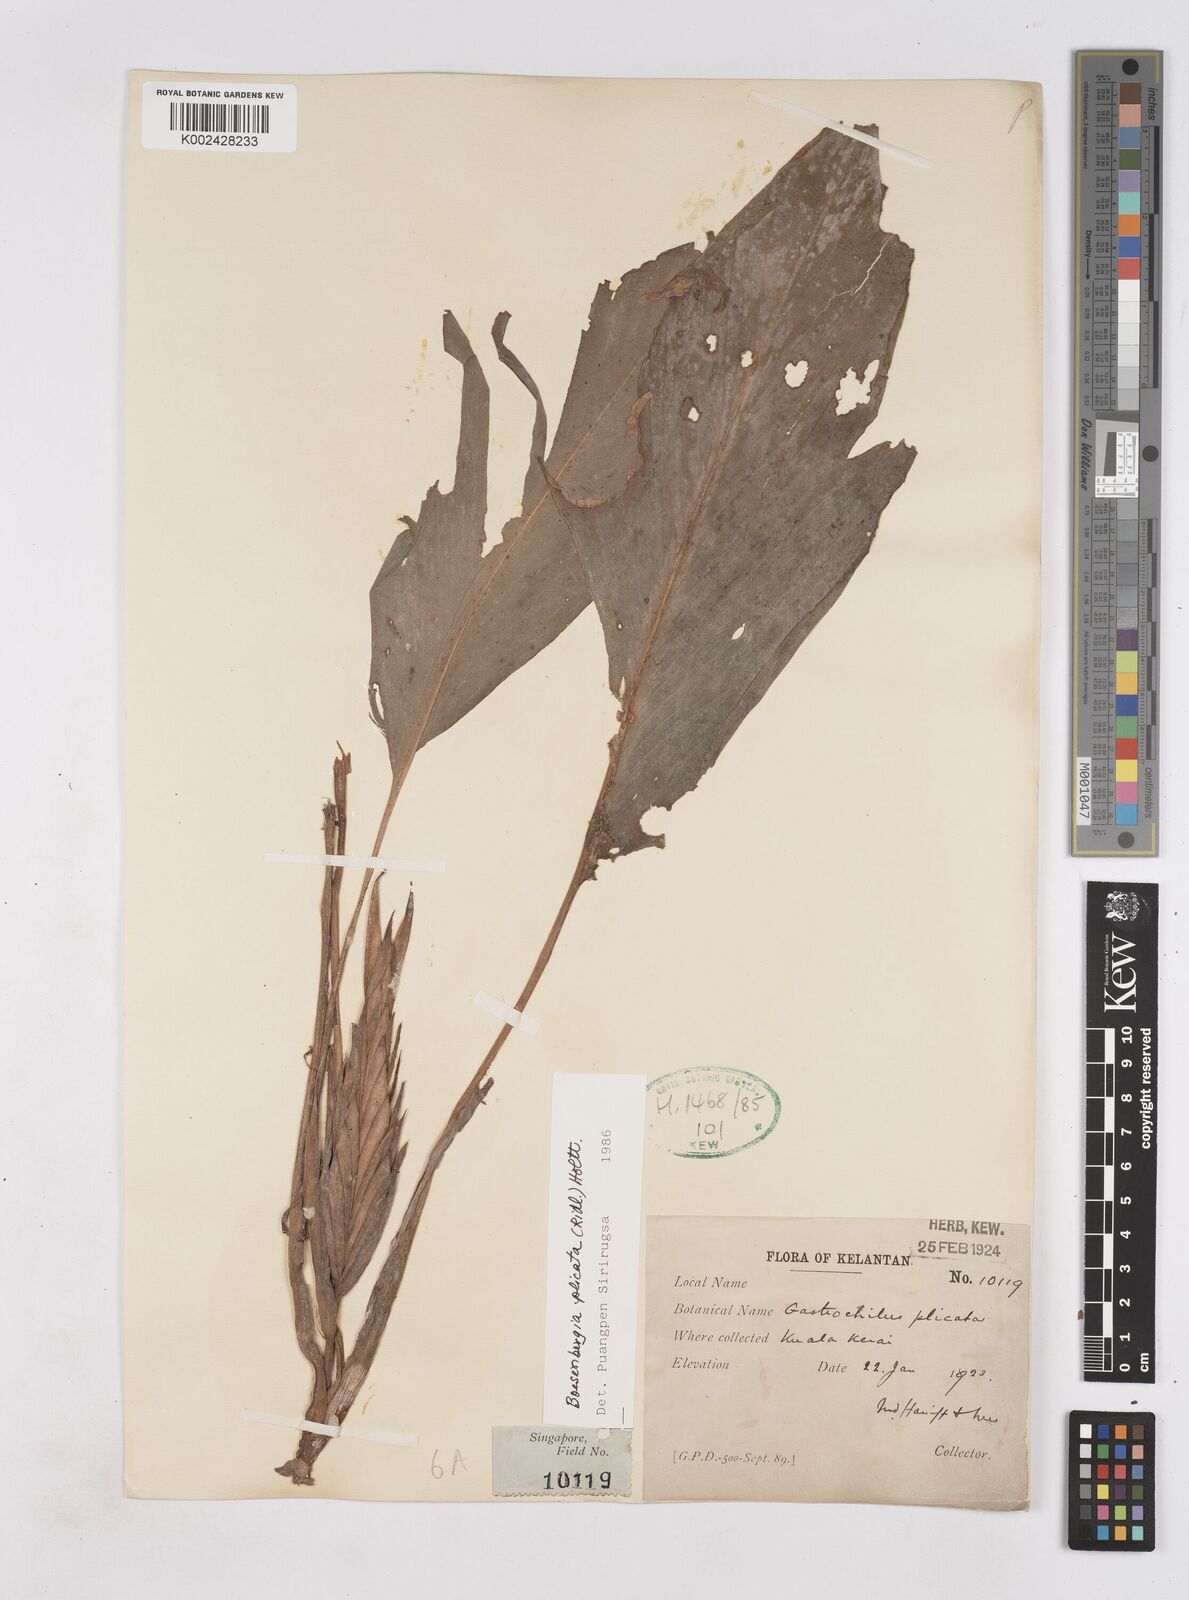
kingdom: Plantae
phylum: Tracheophyta
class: Liliopsida
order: Zingiberales
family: Zingiberaceae
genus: Boesenbergia
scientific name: Boesenbergia plicata
